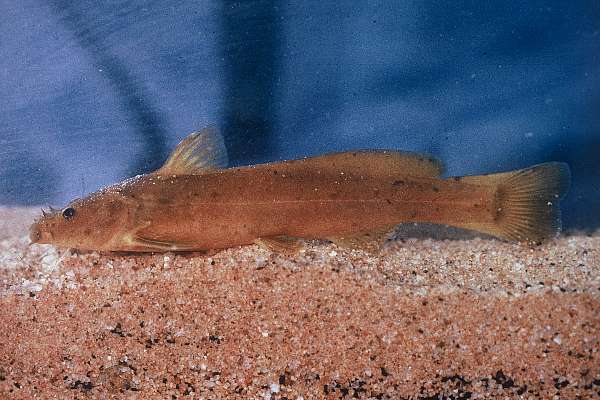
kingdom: Animalia
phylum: Chordata
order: Siluriformes
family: Austroglanididae
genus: Austroglanis
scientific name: Austroglanis barnardi
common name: Barnard's rock-catfish
